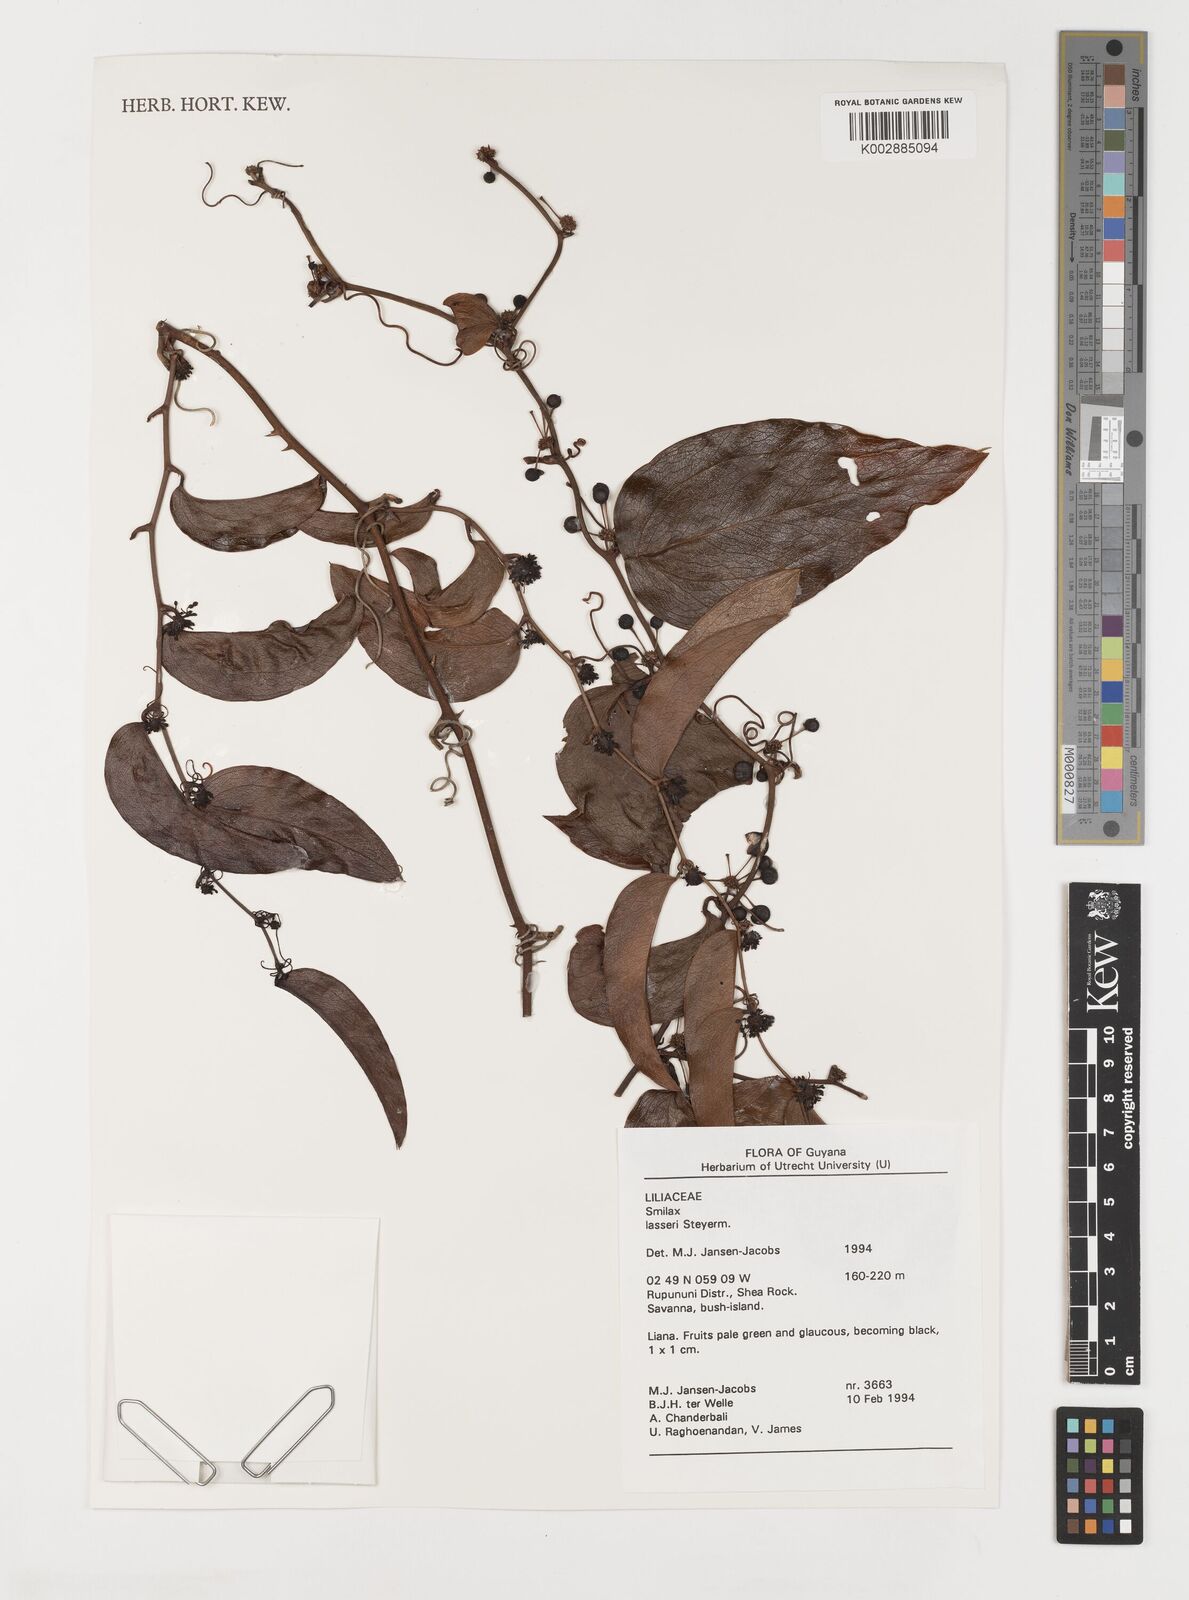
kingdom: Plantae
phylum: Tracheophyta
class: Liliopsida
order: Liliales
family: Smilacaceae
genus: Smilax
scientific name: Smilax domingensis
